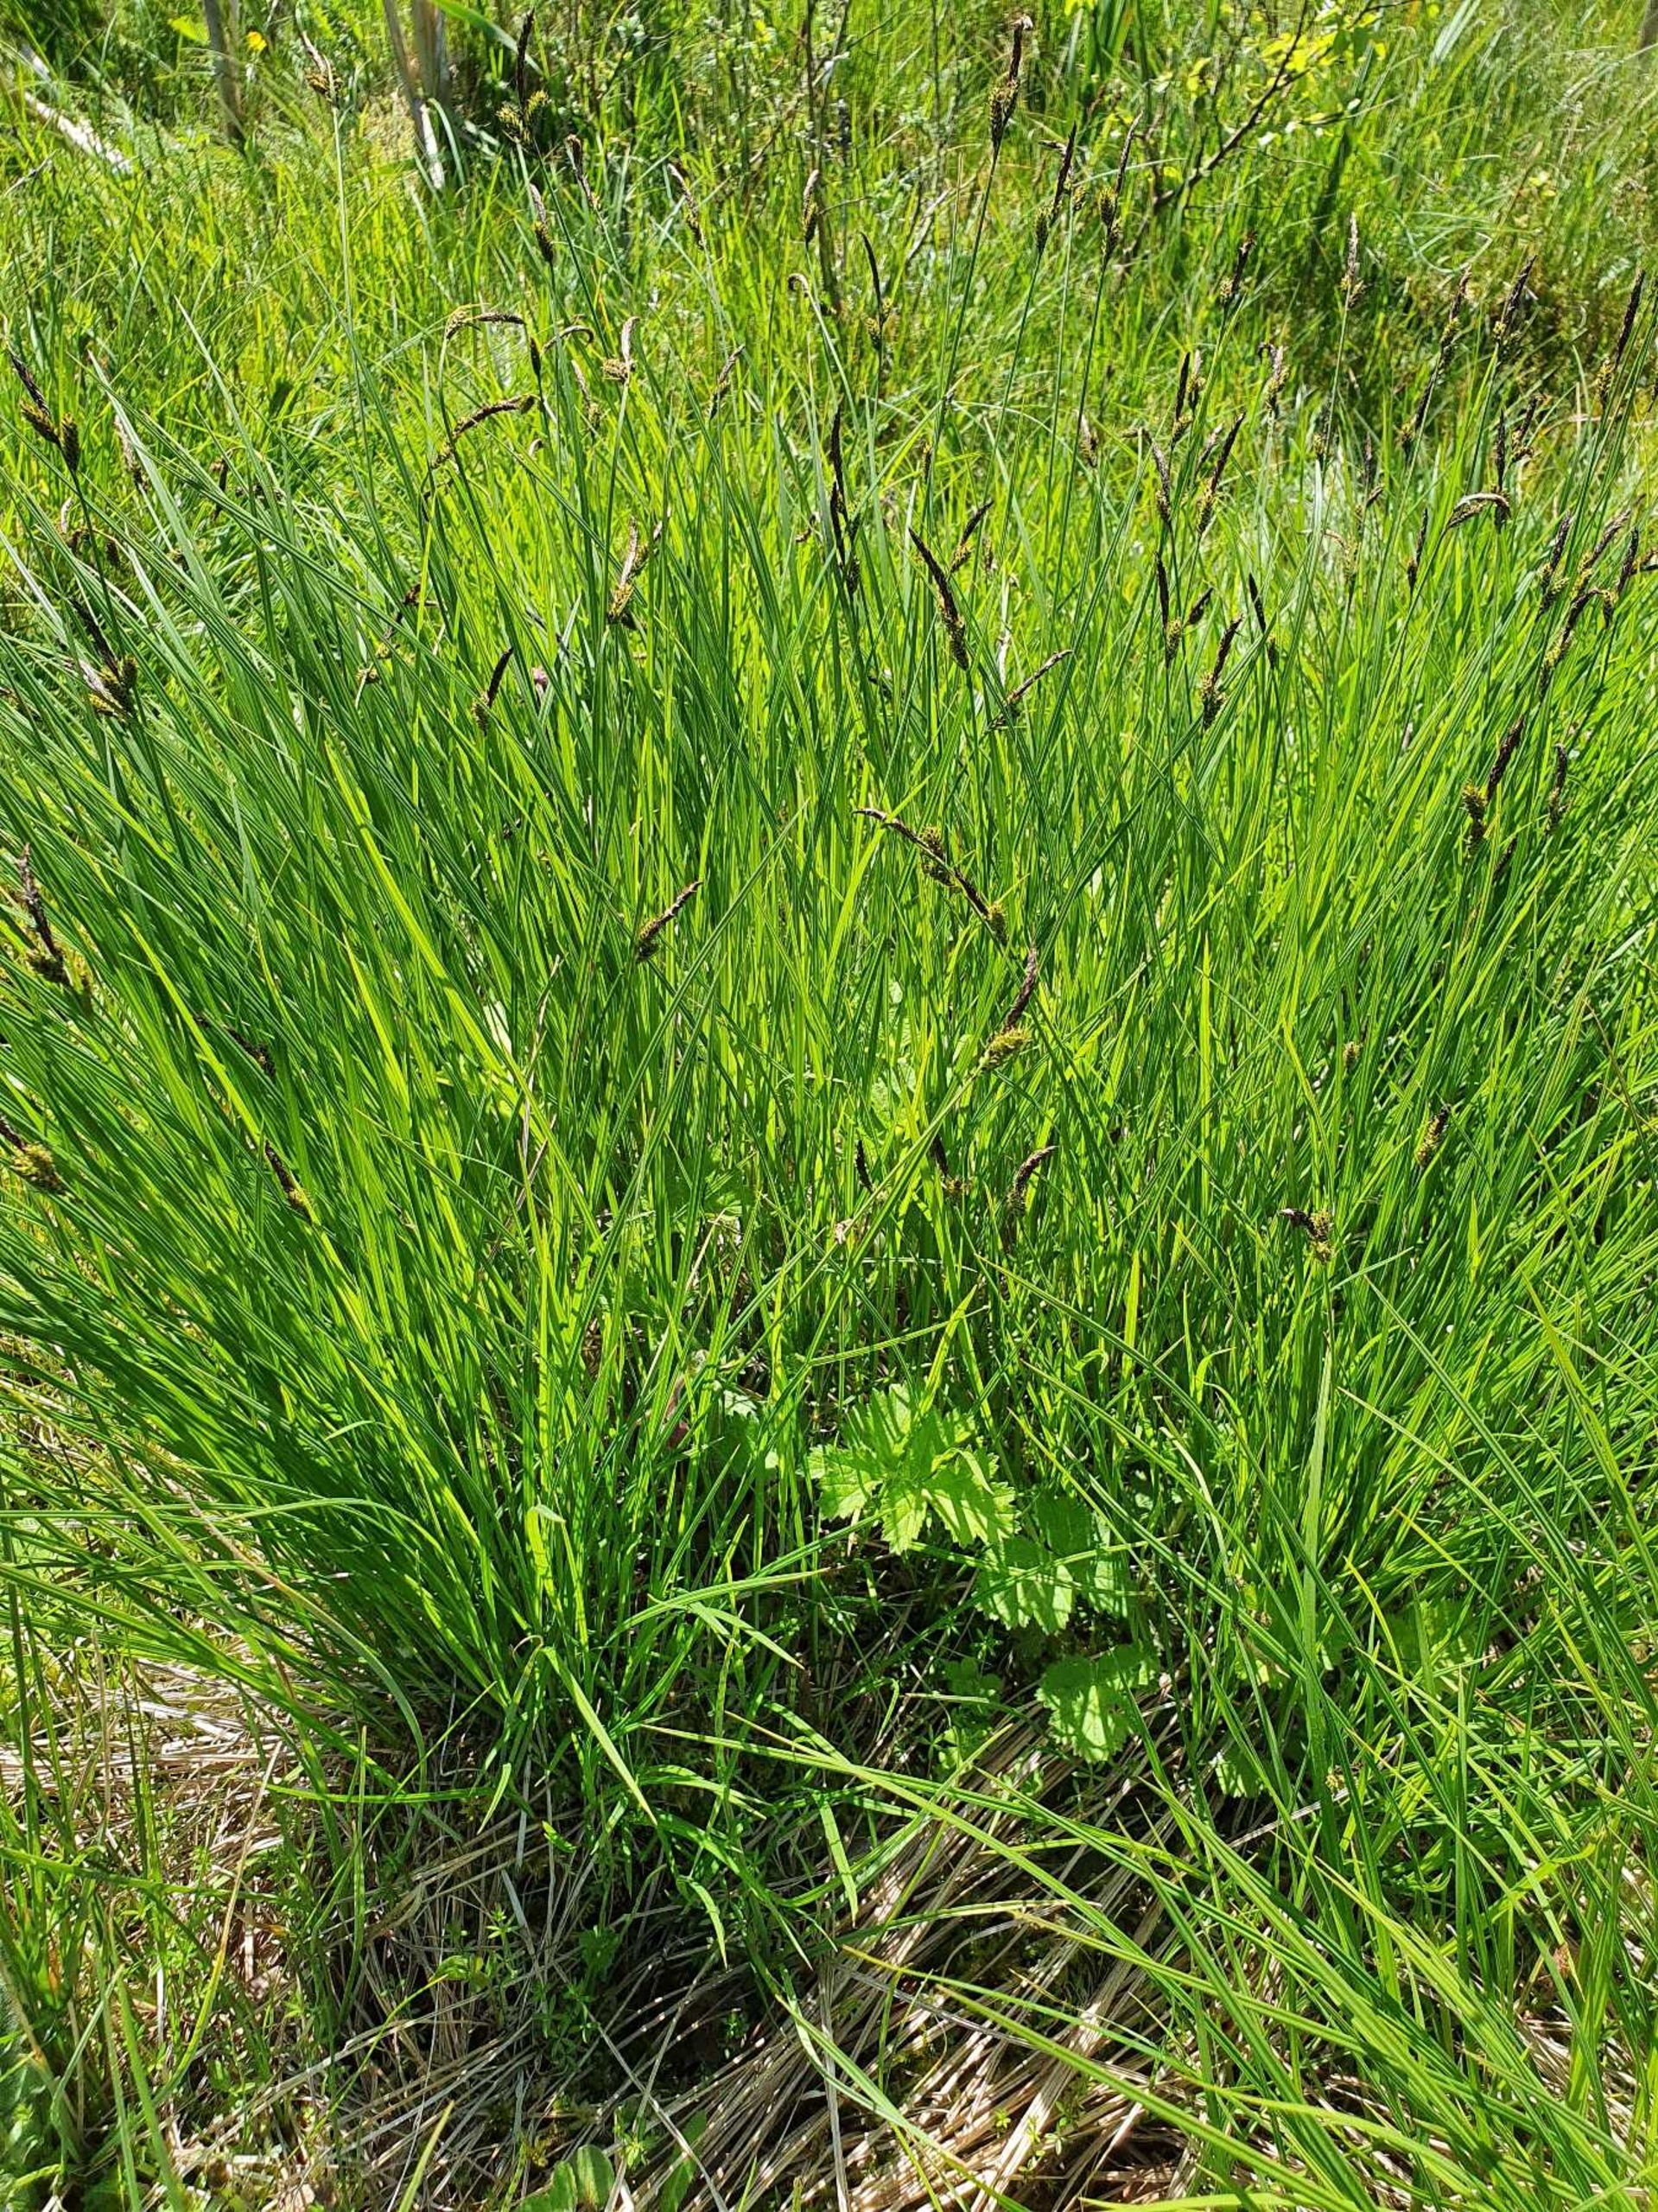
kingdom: Plantae
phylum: Tracheophyta
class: Liliopsida
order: Poales
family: Cyperaceae
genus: Carex
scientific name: Carex cespitosa
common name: Tue-star
